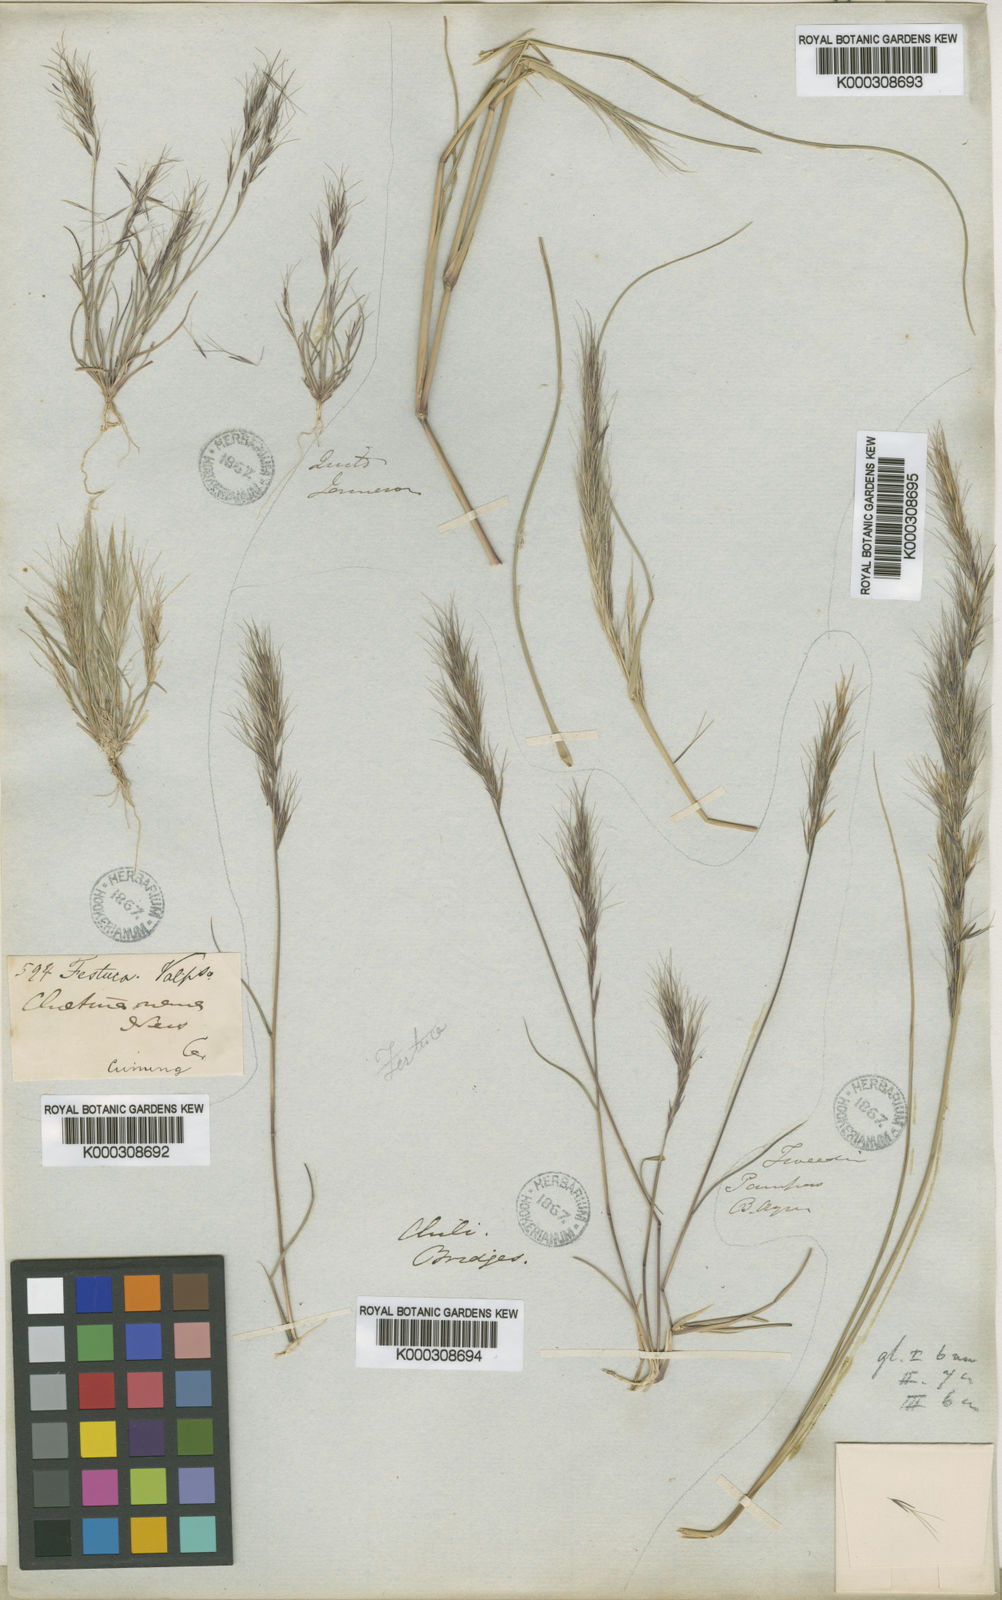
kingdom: Plantae
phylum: Tracheophyta
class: Liliopsida
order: Poales
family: Poaceae
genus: Aristida
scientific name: Aristida adscensionis
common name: Sixweeks threeawn
